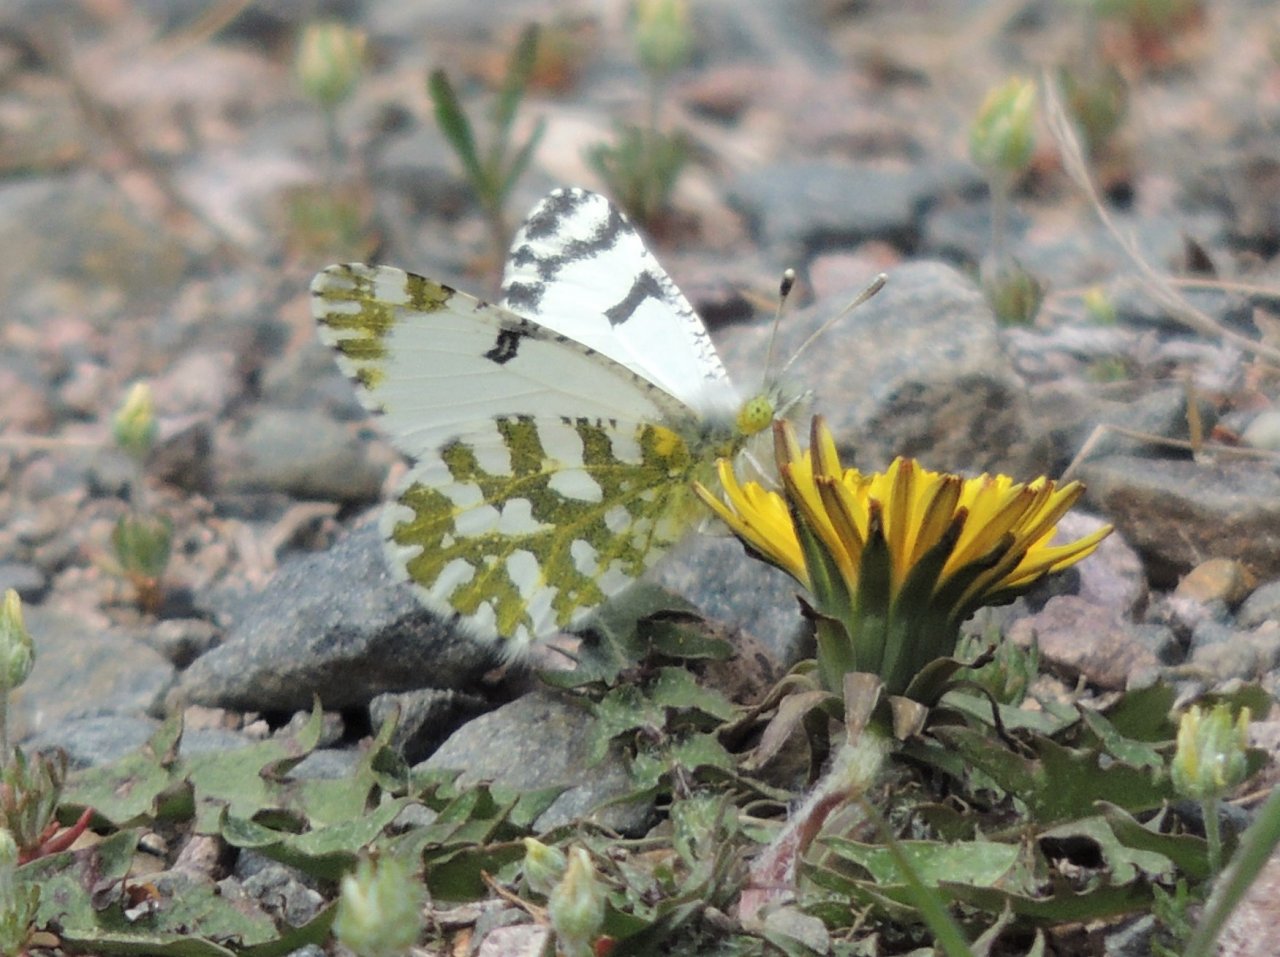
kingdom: Animalia
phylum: Arthropoda
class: Insecta
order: Lepidoptera
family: Pieridae
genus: Euchloe
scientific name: Euchloe lotta
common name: Desert Marble
